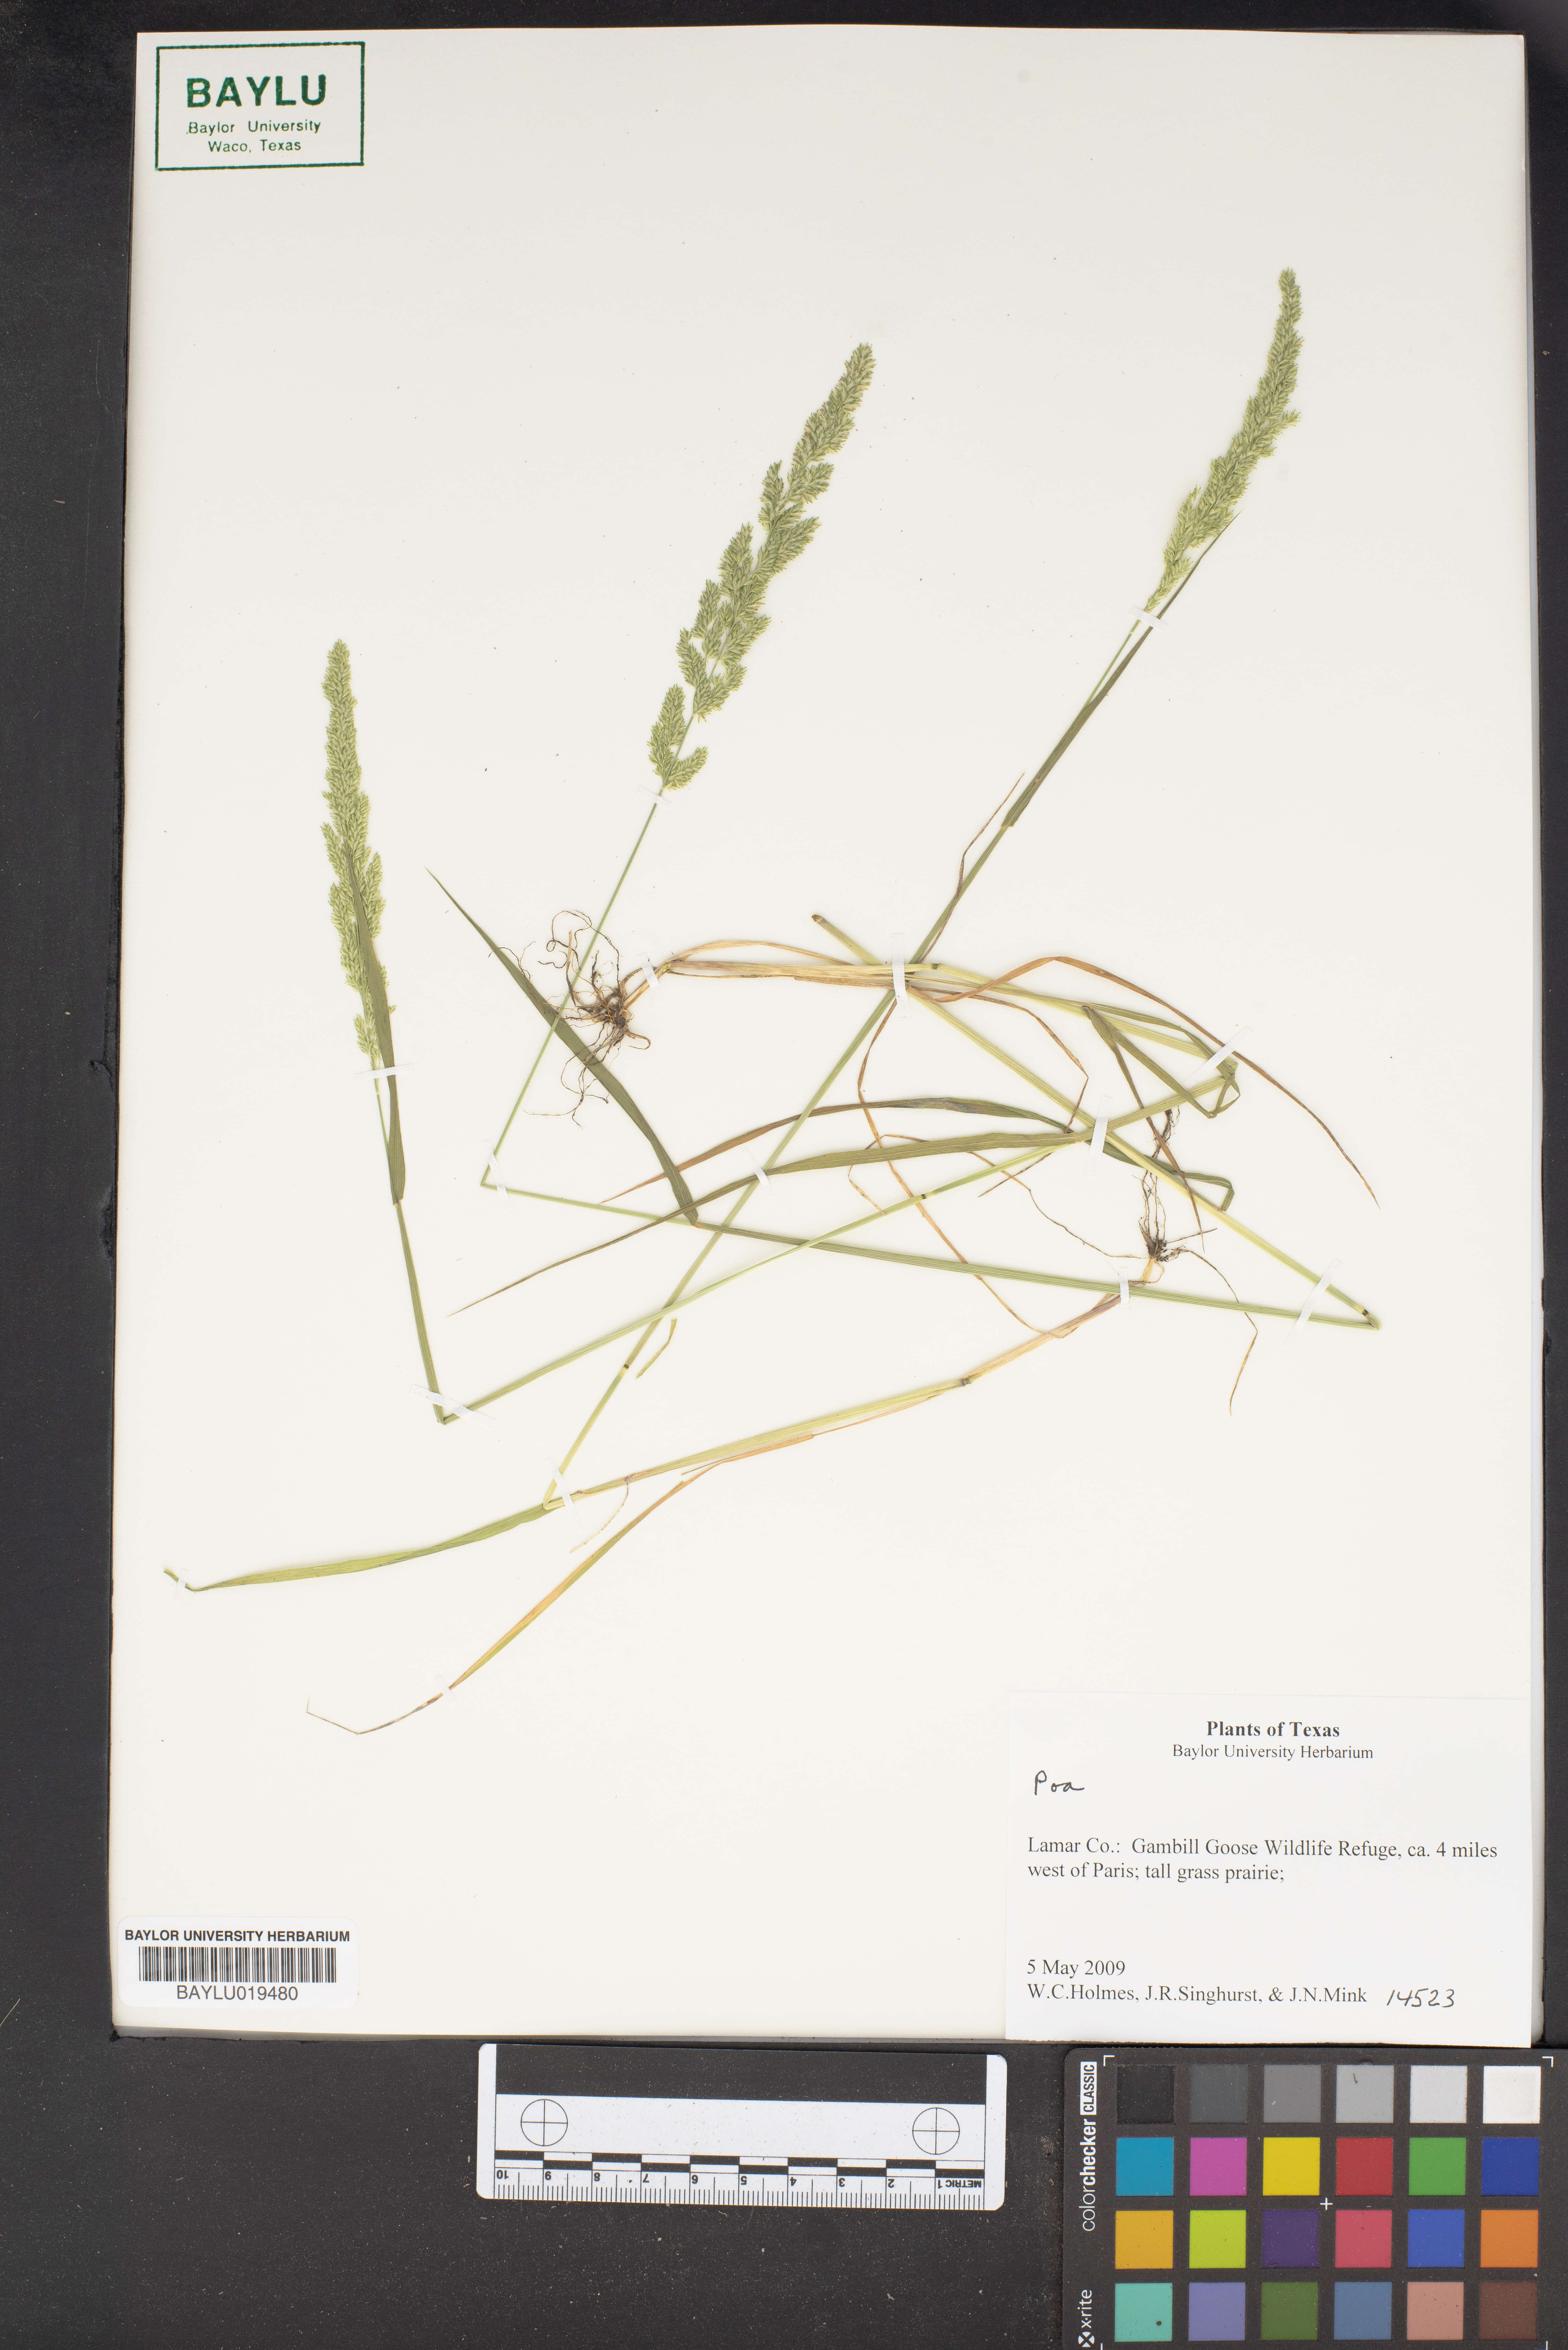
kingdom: Plantae
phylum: Tracheophyta
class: Liliopsida
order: Poales
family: Poaceae
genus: Poa
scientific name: Poa pattersonii
